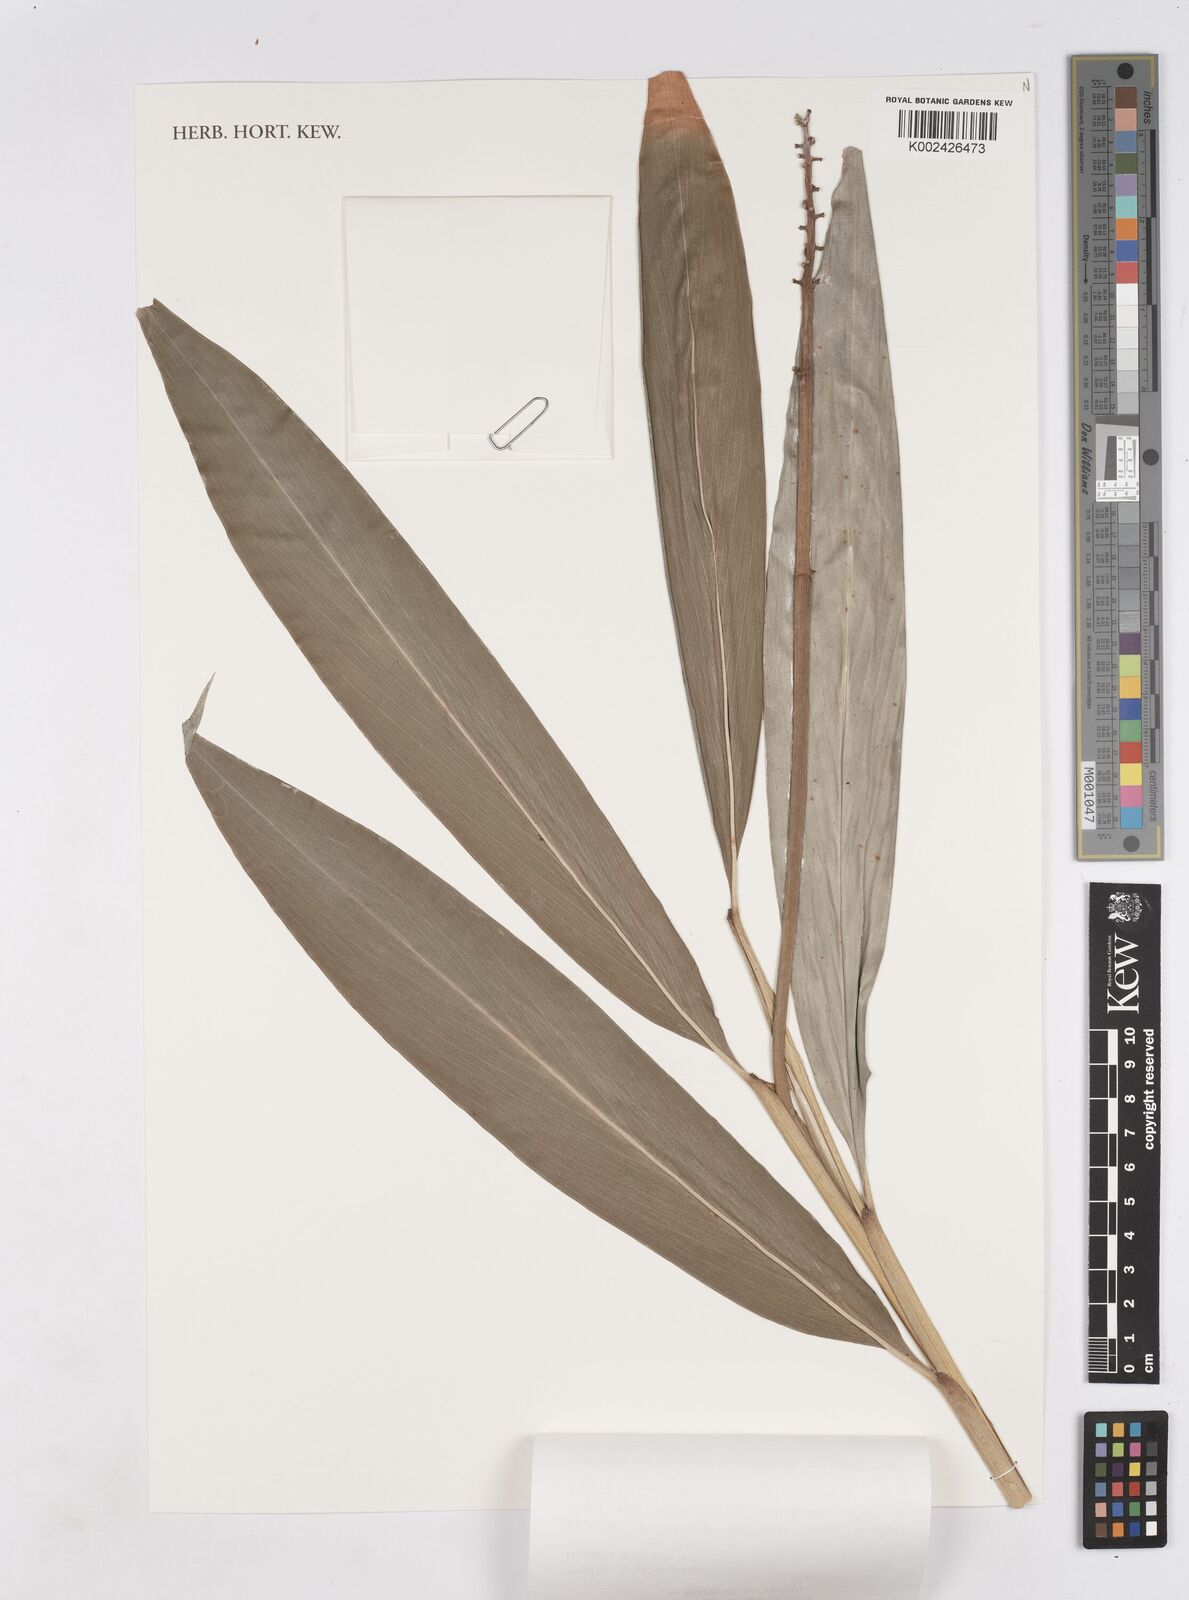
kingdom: Plantae
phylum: Tracheophyta
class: Liliopsida
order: Zingiberales
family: Zingiberaceae
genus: Riedelia
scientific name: Riedelia longifolia
